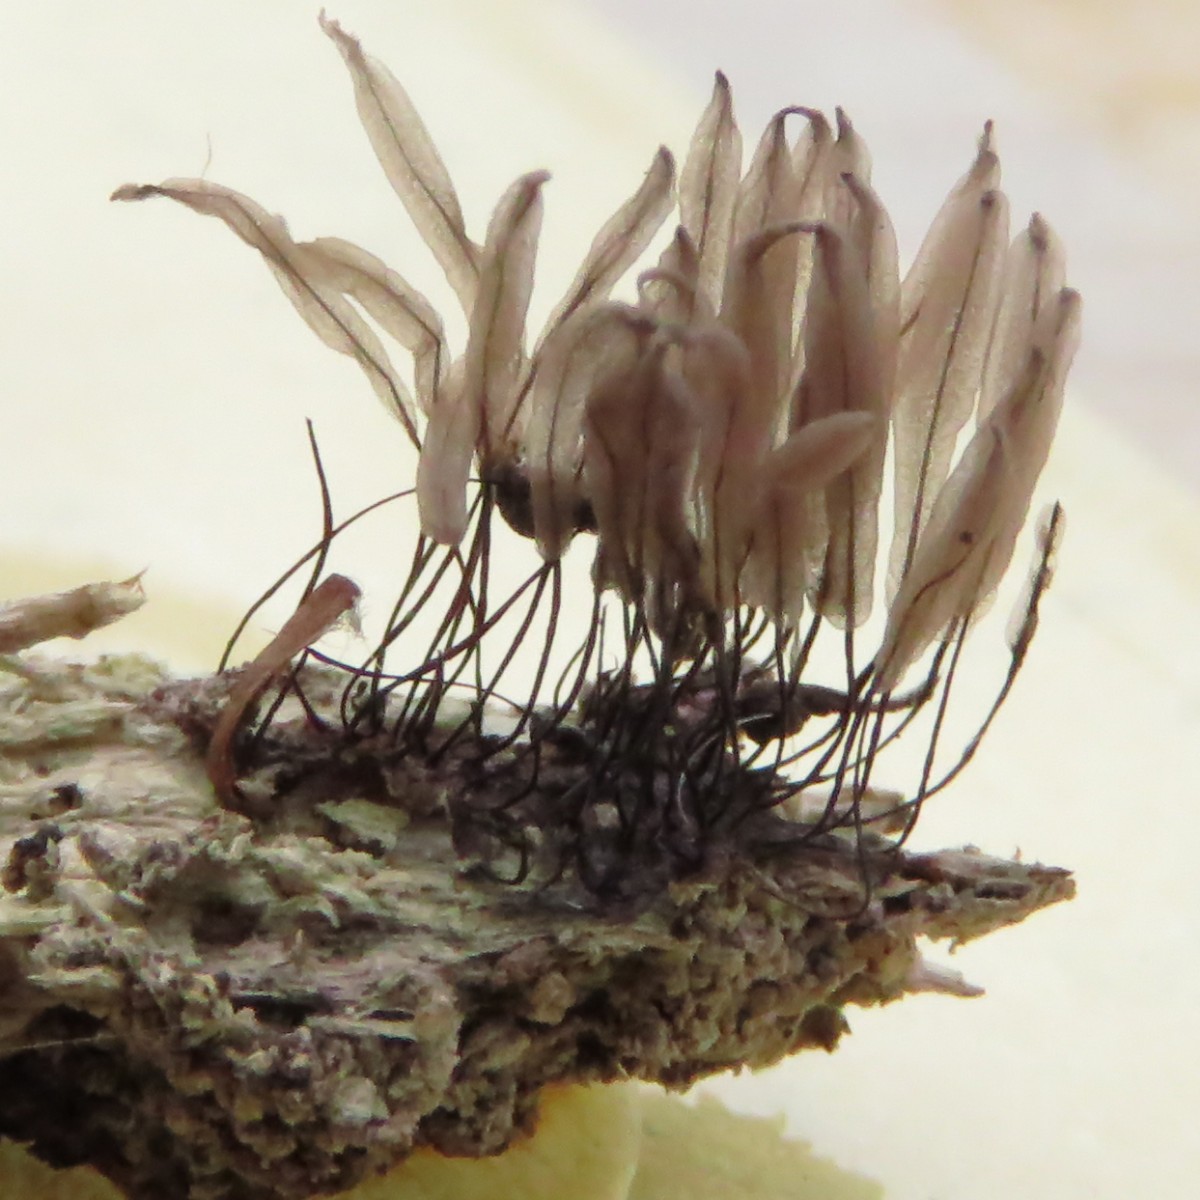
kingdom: Protozoa
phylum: Mycetozoa
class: Myxomycetes
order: Stemonitidales
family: Stemonitidaceae
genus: Stemonitis
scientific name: Stemonitis axifera
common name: rødbrun støvkølle
